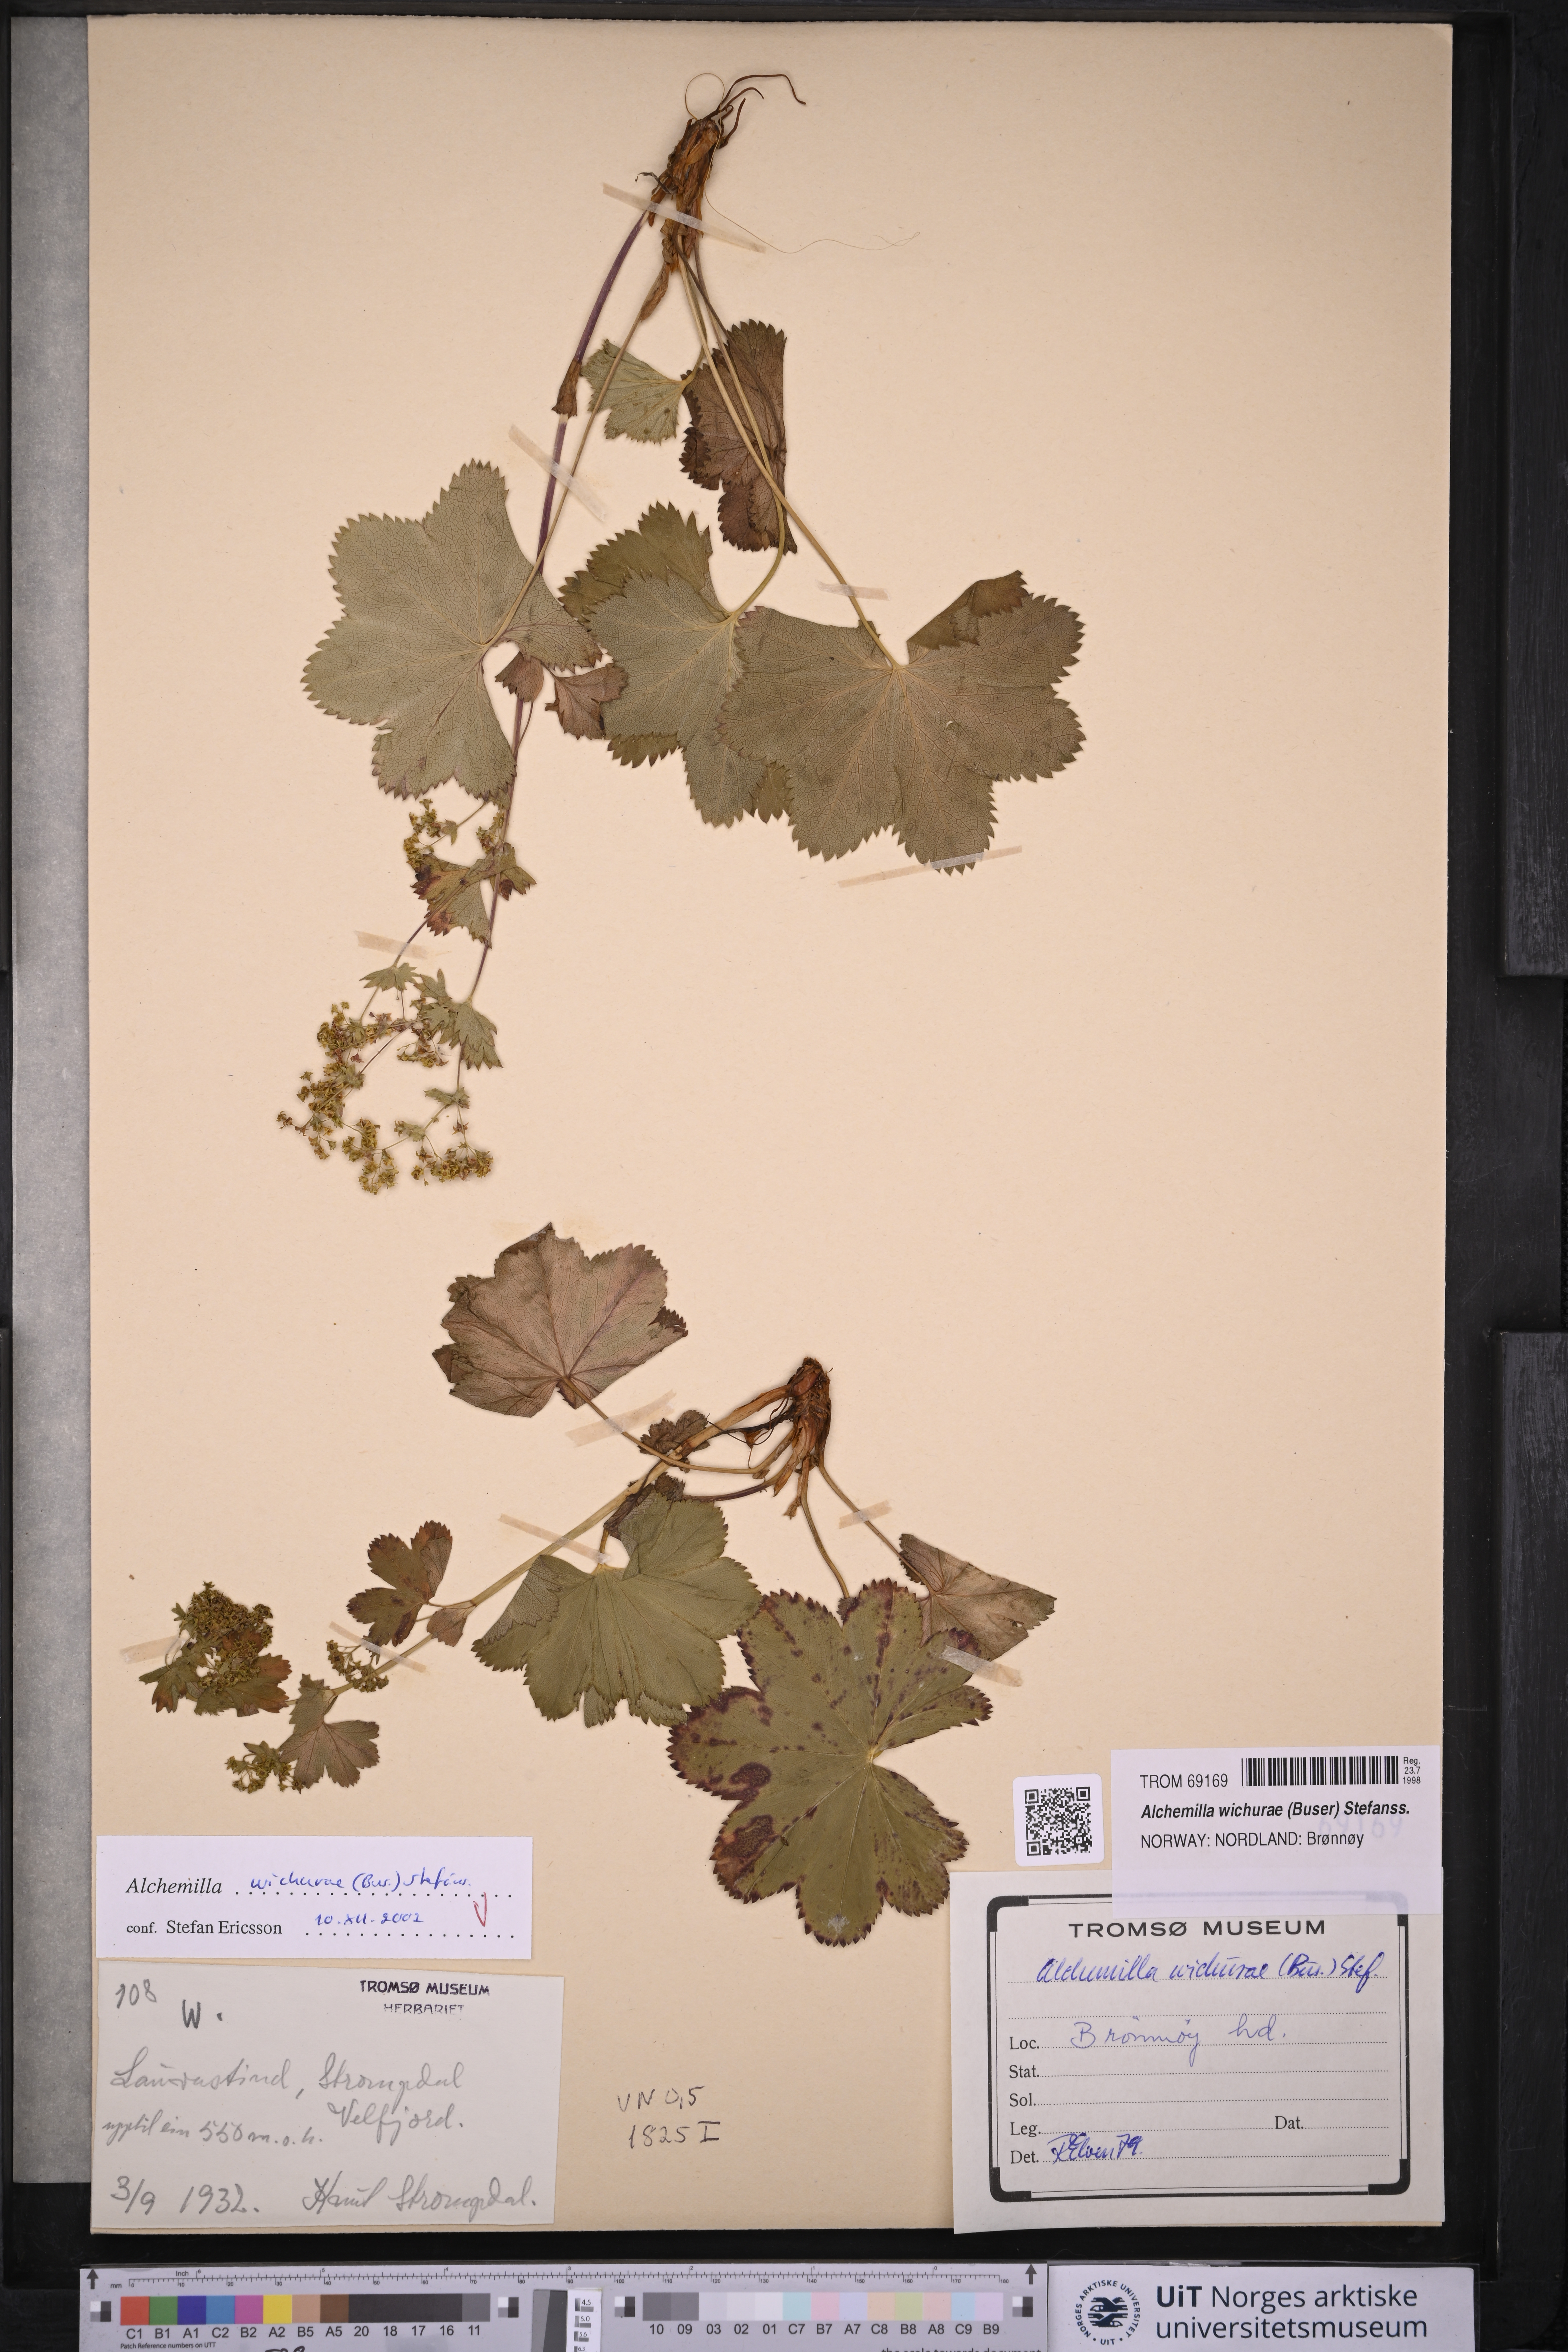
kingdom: Plantae
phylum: Tracheophyta
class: Magnoliopsida
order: Rosales
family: Rosaceae
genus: Alchemilla
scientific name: Alchemilla wichurae
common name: Rock lady's mantle
